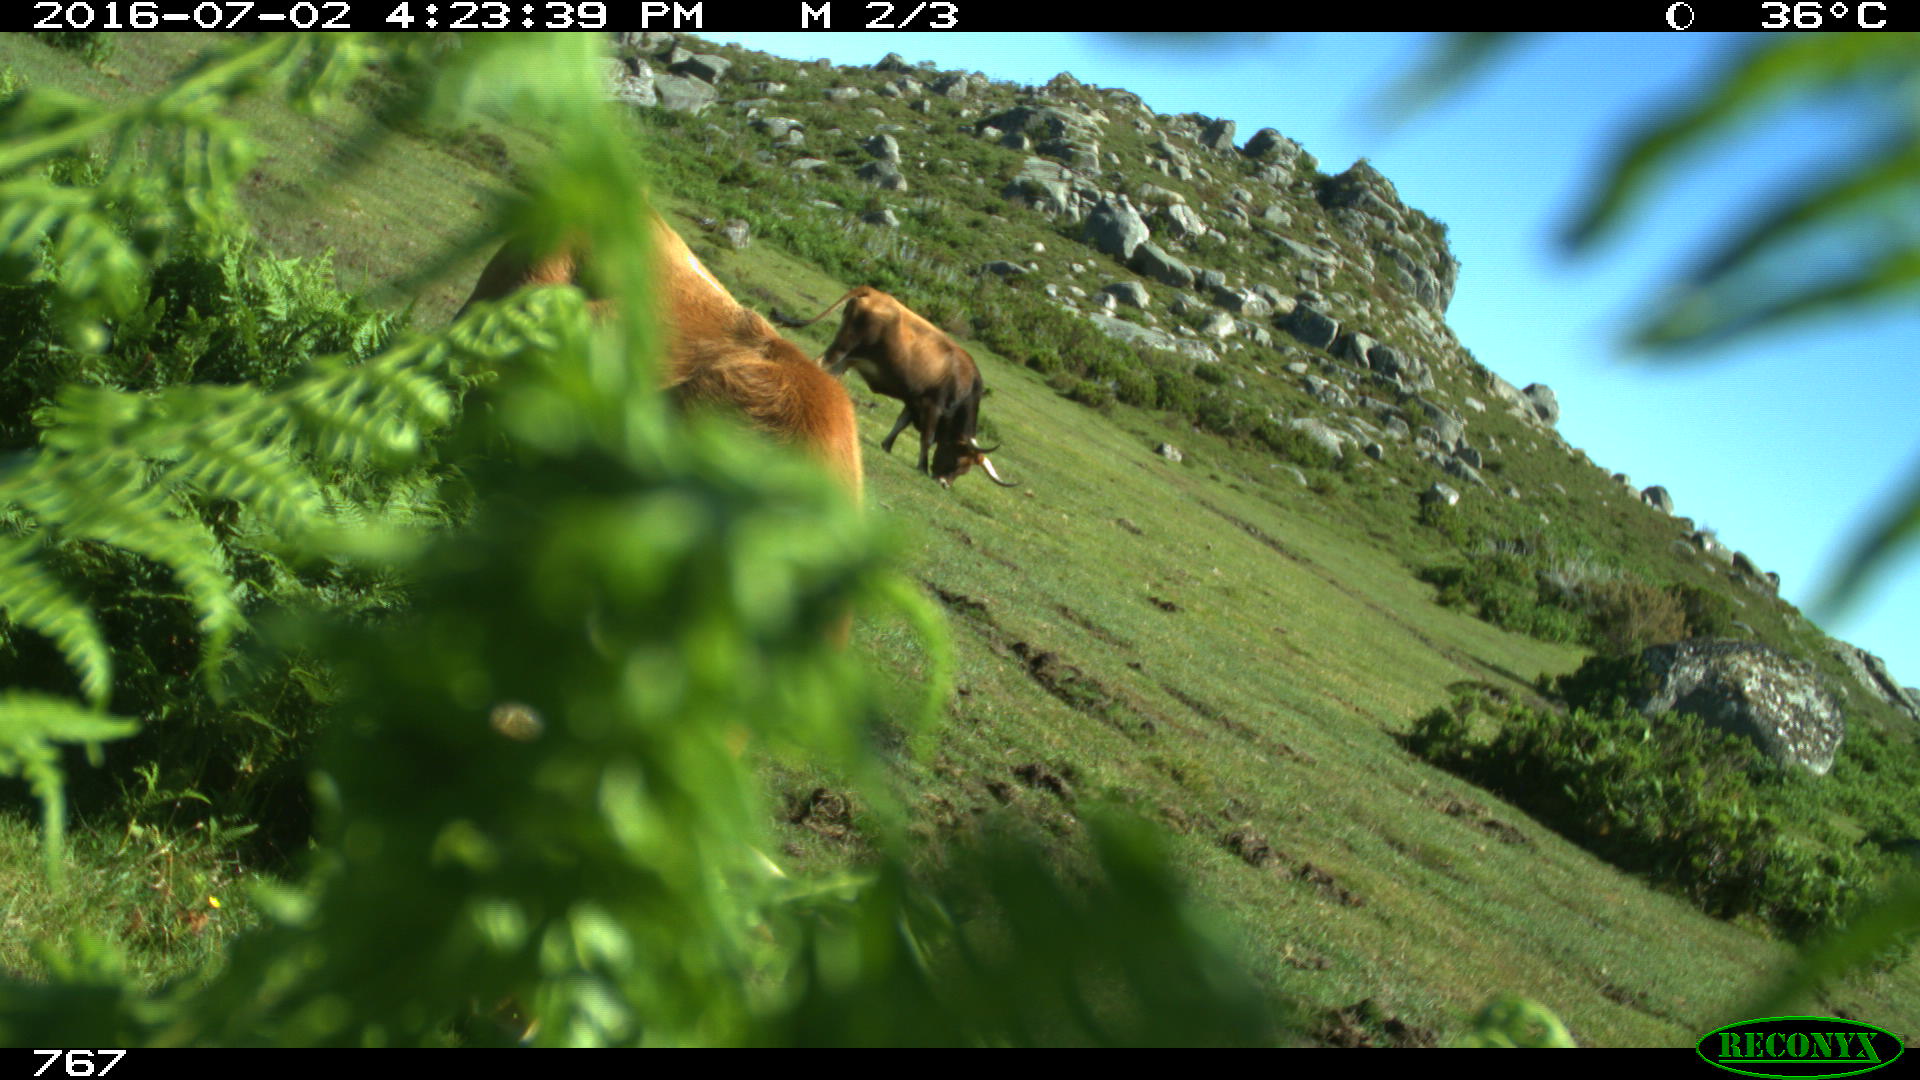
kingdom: Animalia
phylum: Chordata
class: Mammalia
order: Artiodactyla
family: Bovidae
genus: Bos
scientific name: Bos taurus
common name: Domesticated cattle
